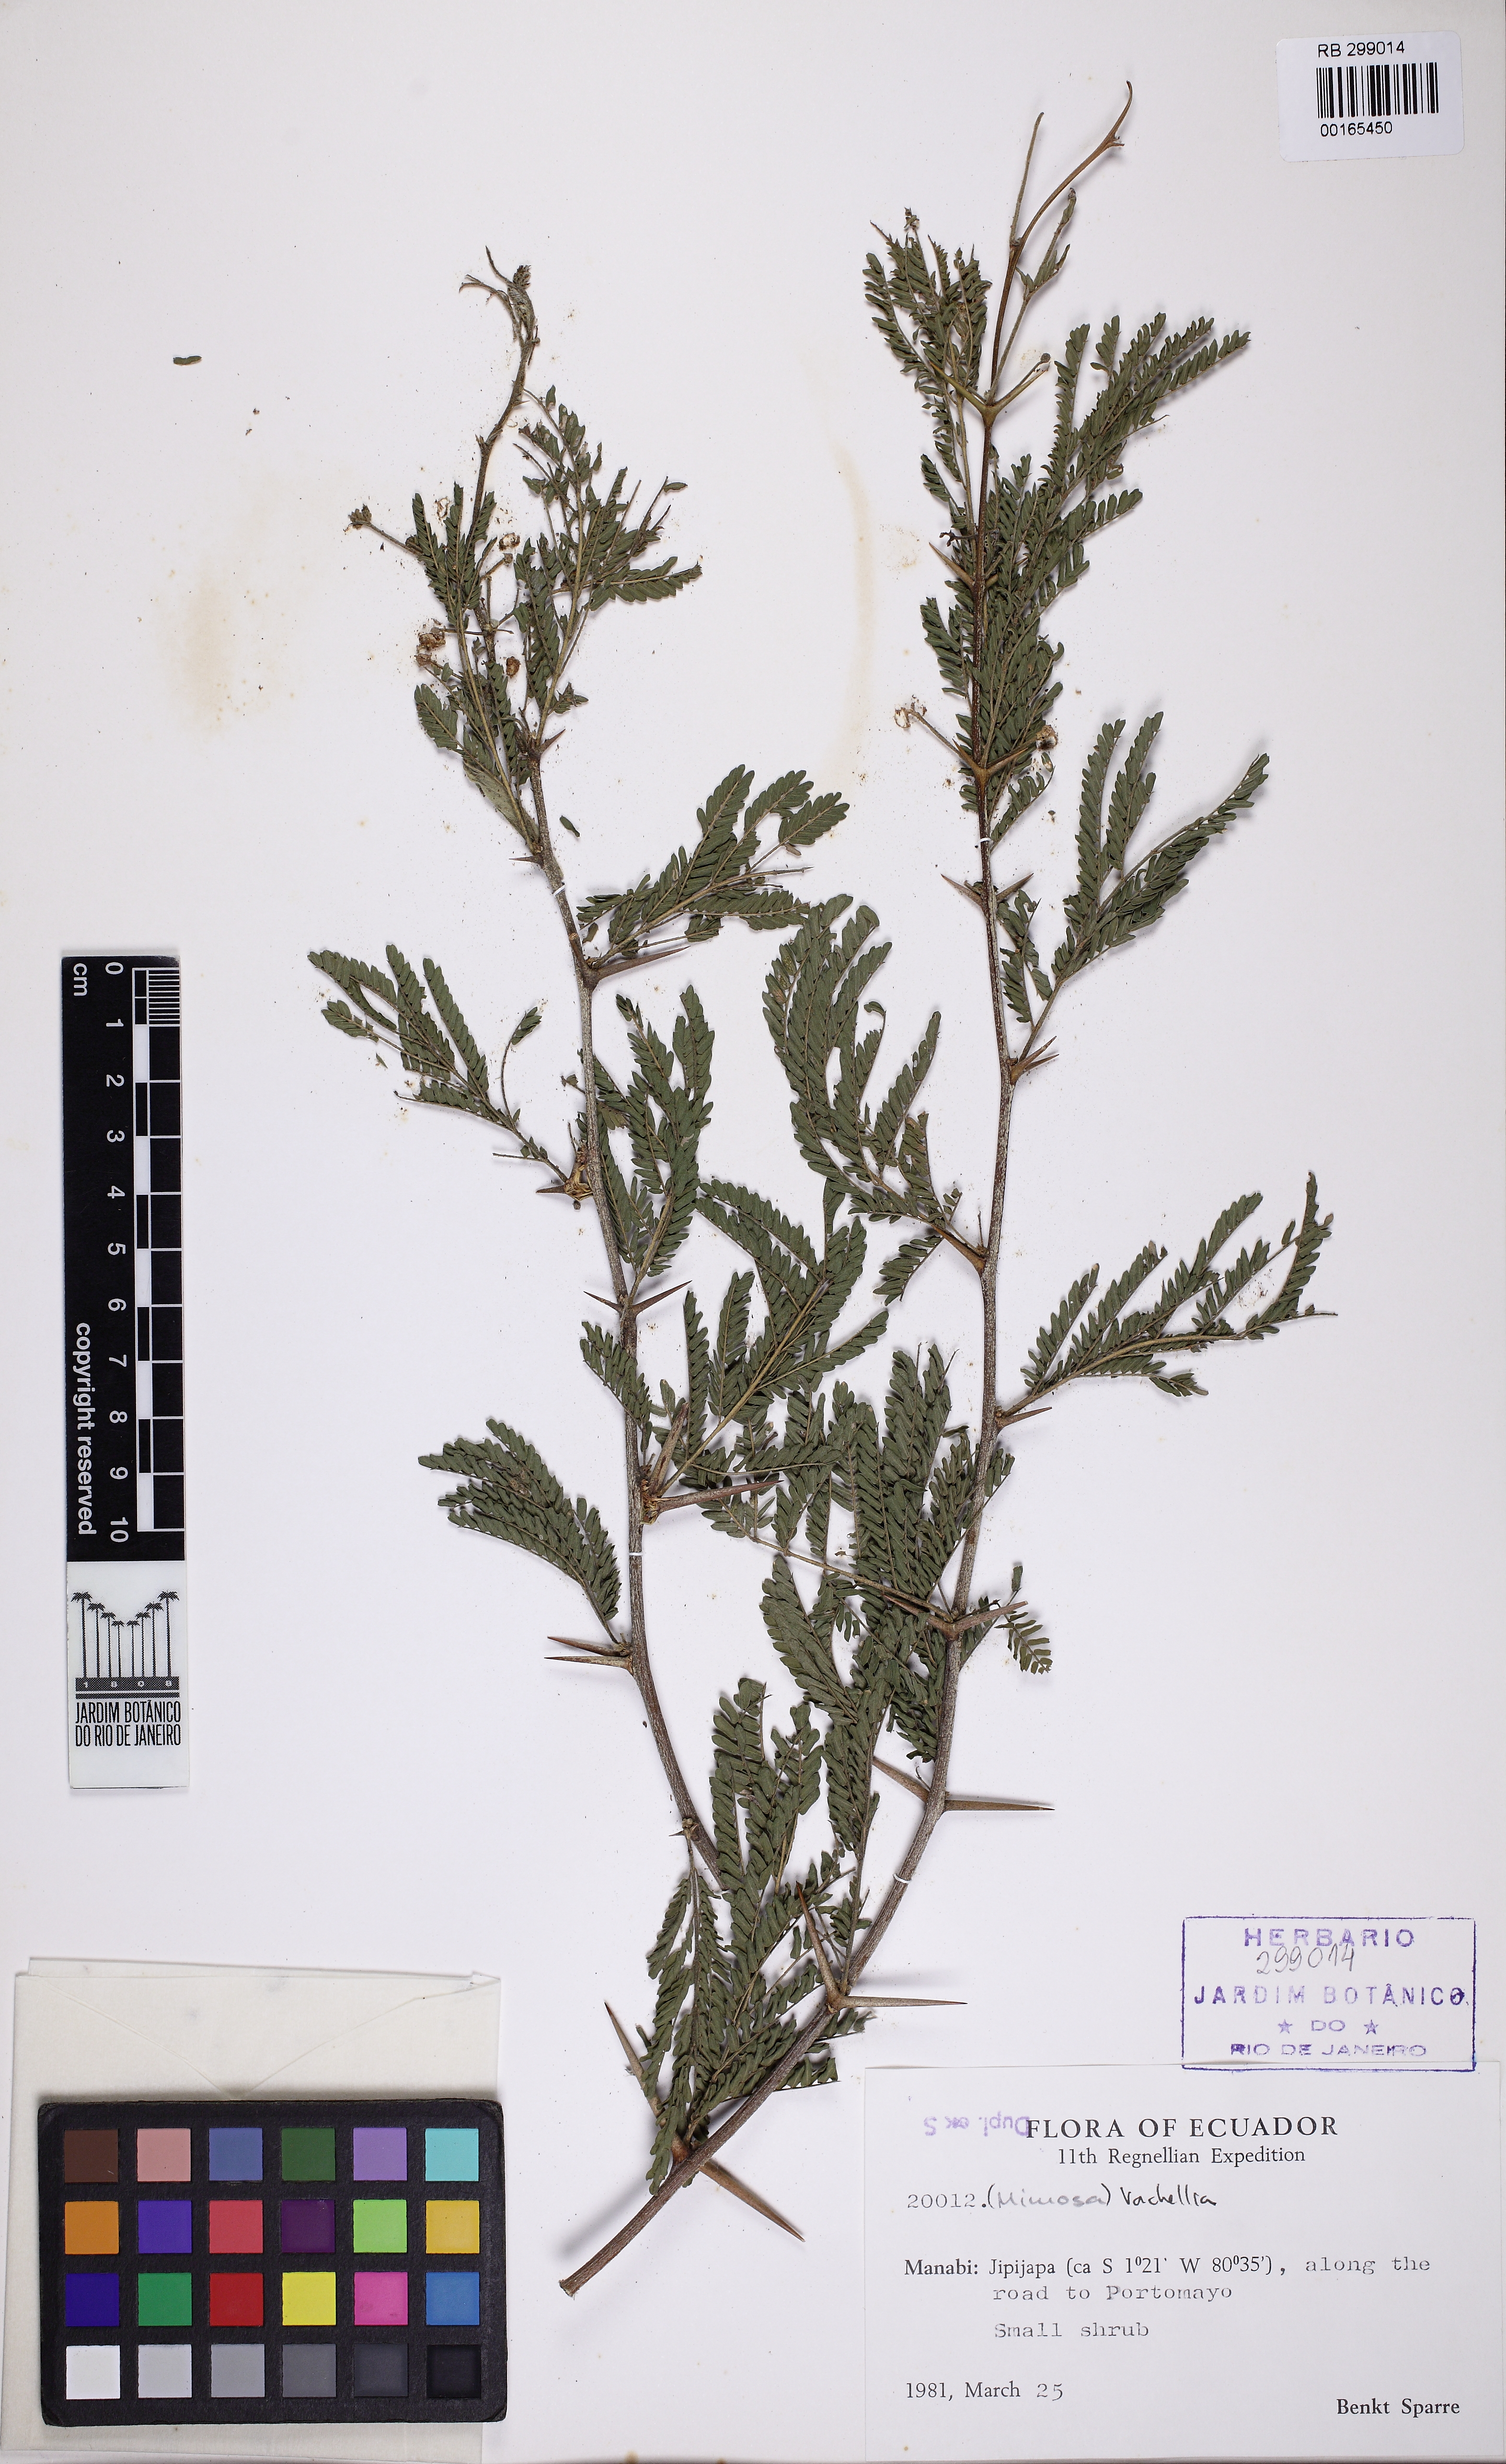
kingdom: Plantae
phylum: Tracheophyta
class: Magnoliopsida
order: Fabales
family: Fabaceae
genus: Vachellia
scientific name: Vachellia
